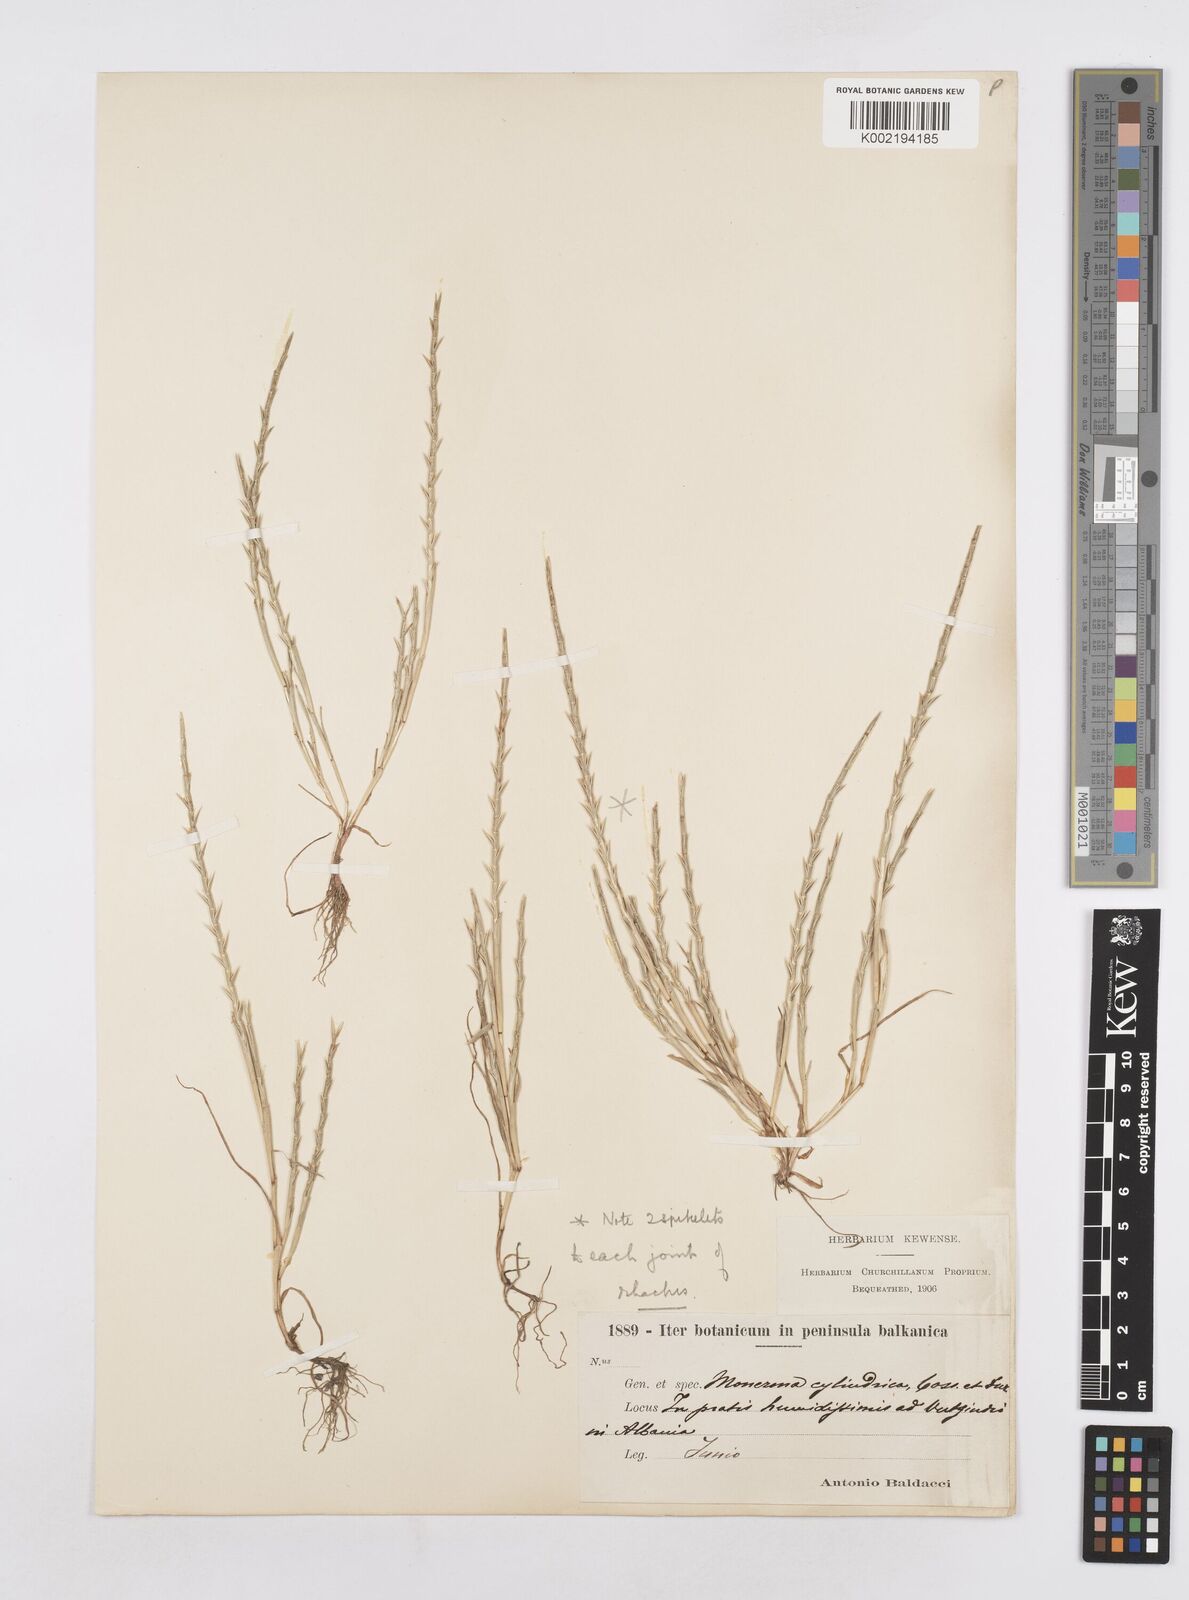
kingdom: Plantae
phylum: Tracheophyta
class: Liliopsida
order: Poales
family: Poaceae
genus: Parapholis
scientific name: Parapholis cylindrica
